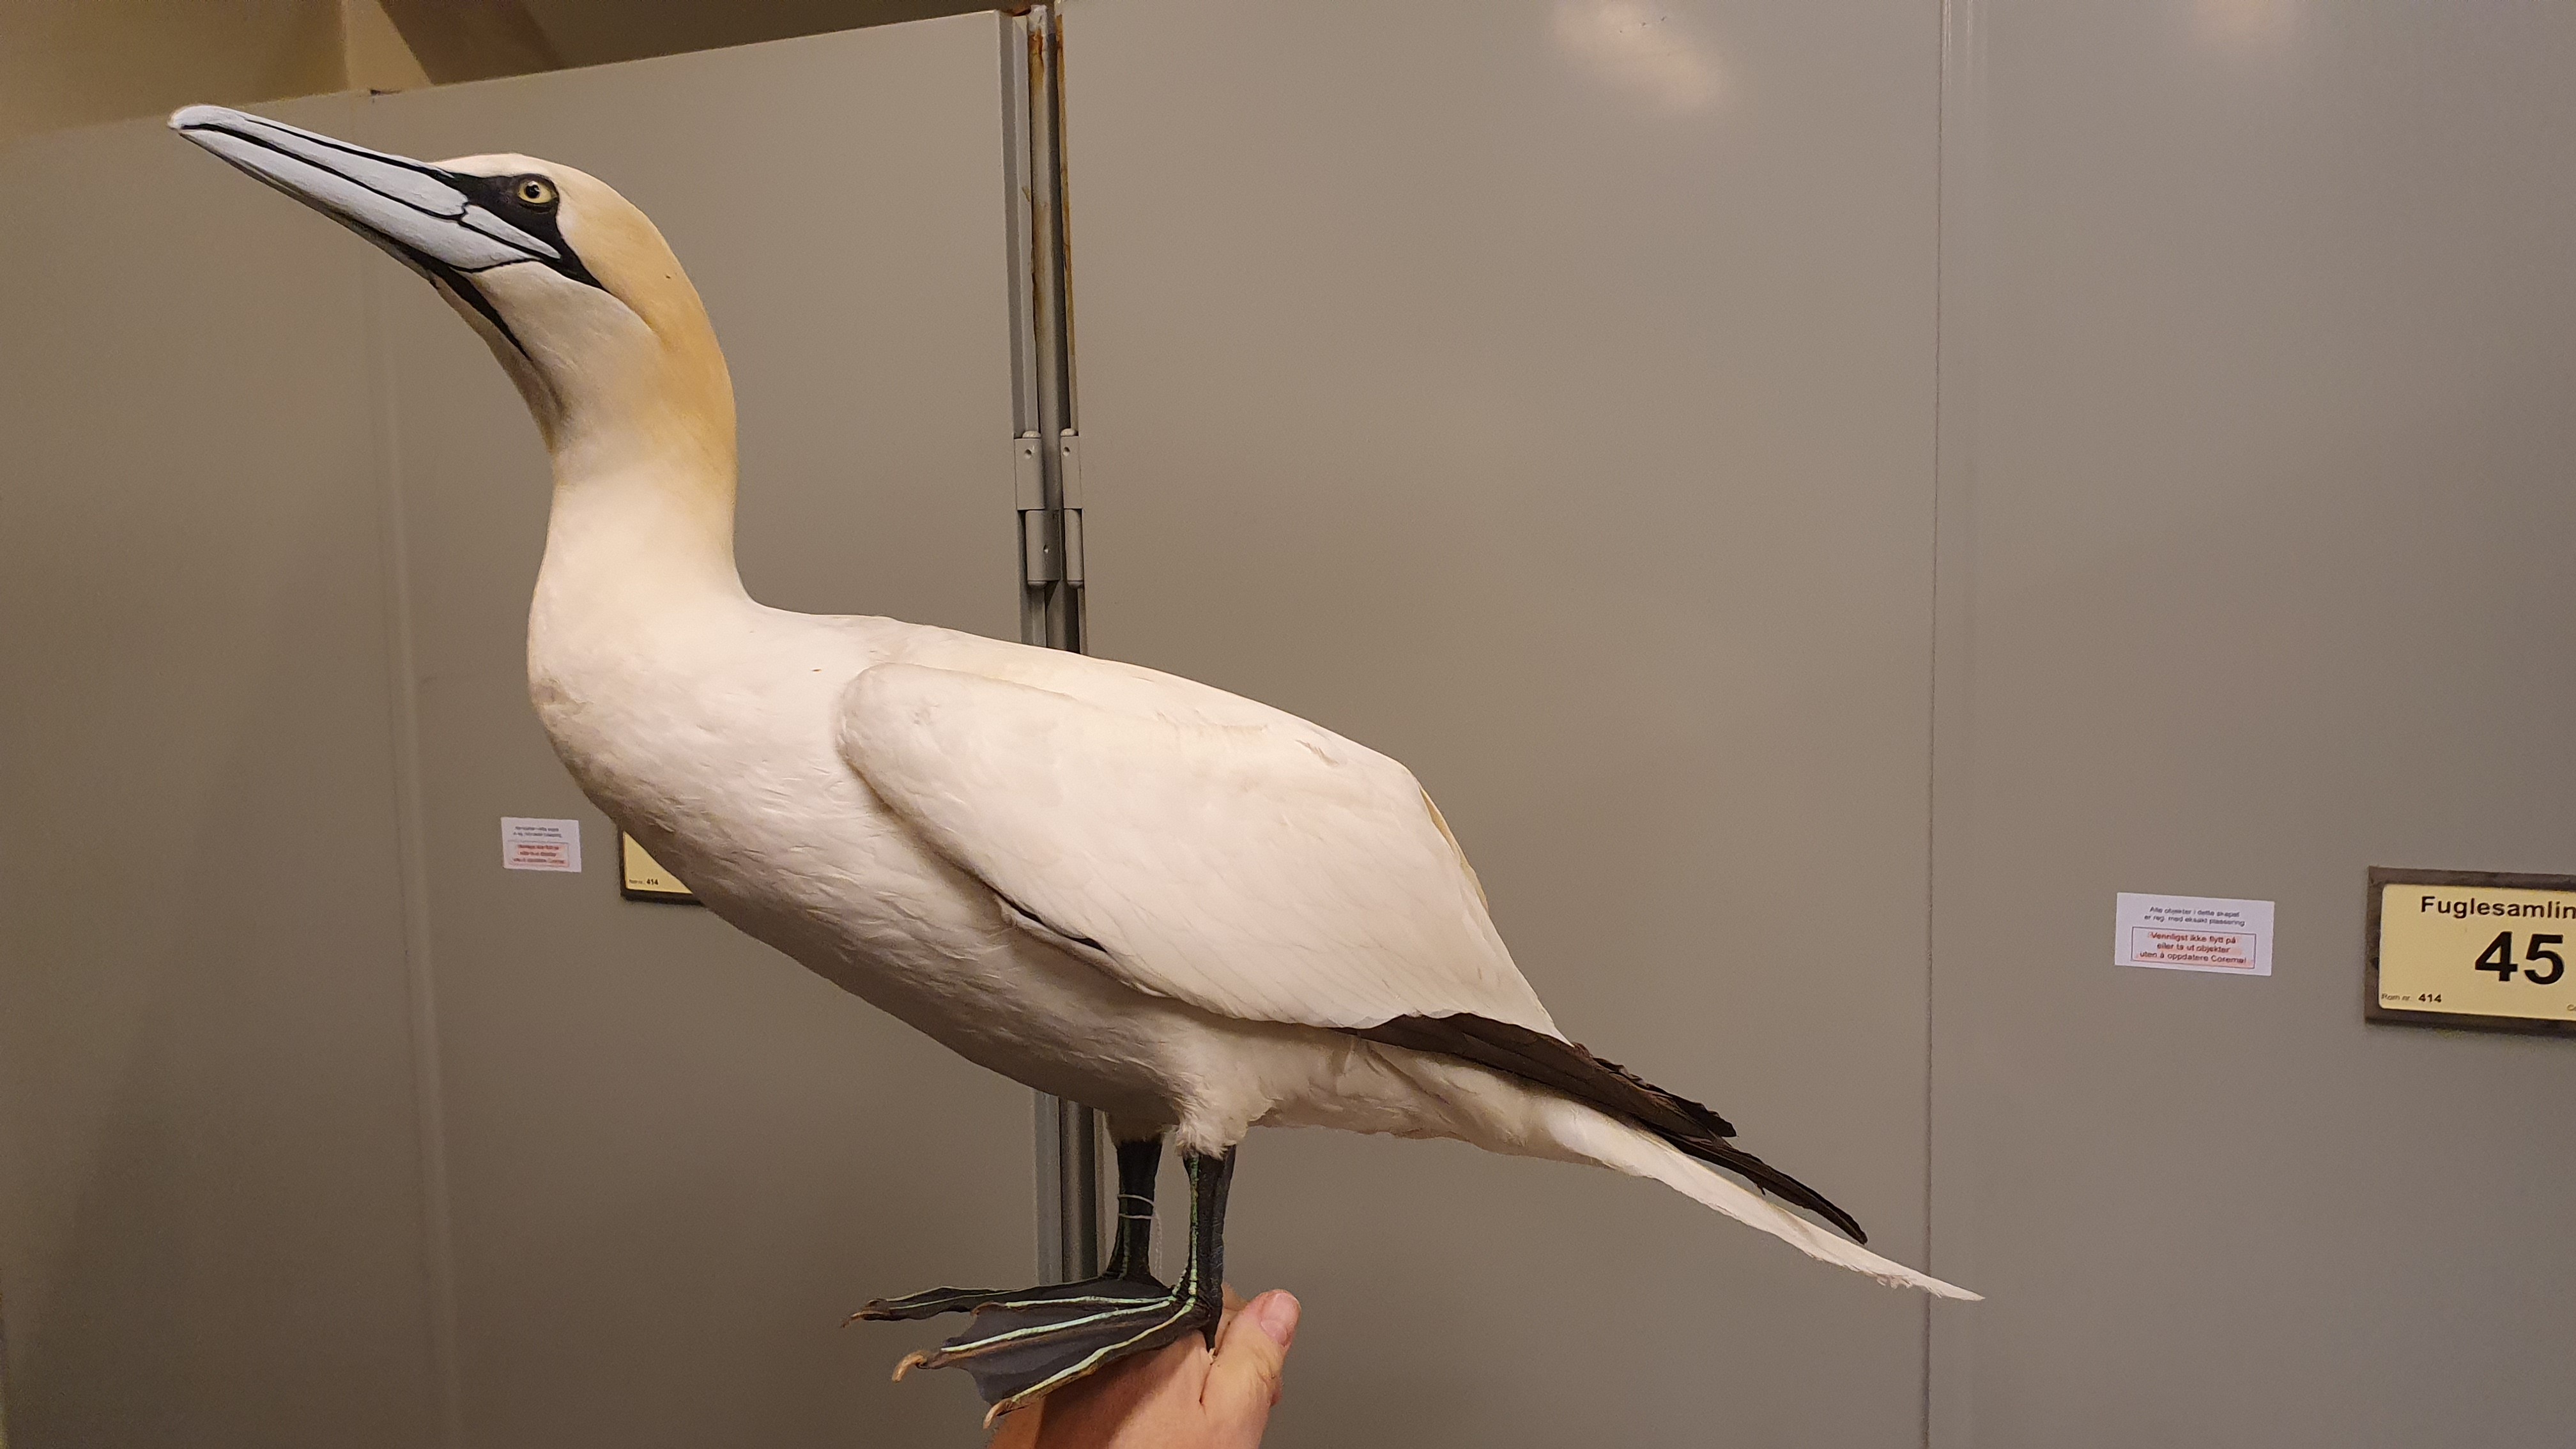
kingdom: Animalia
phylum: Chordata
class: Aves
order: Suliformes
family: Sulidae
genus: Morus
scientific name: Morus bassanus
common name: Northern gannet
